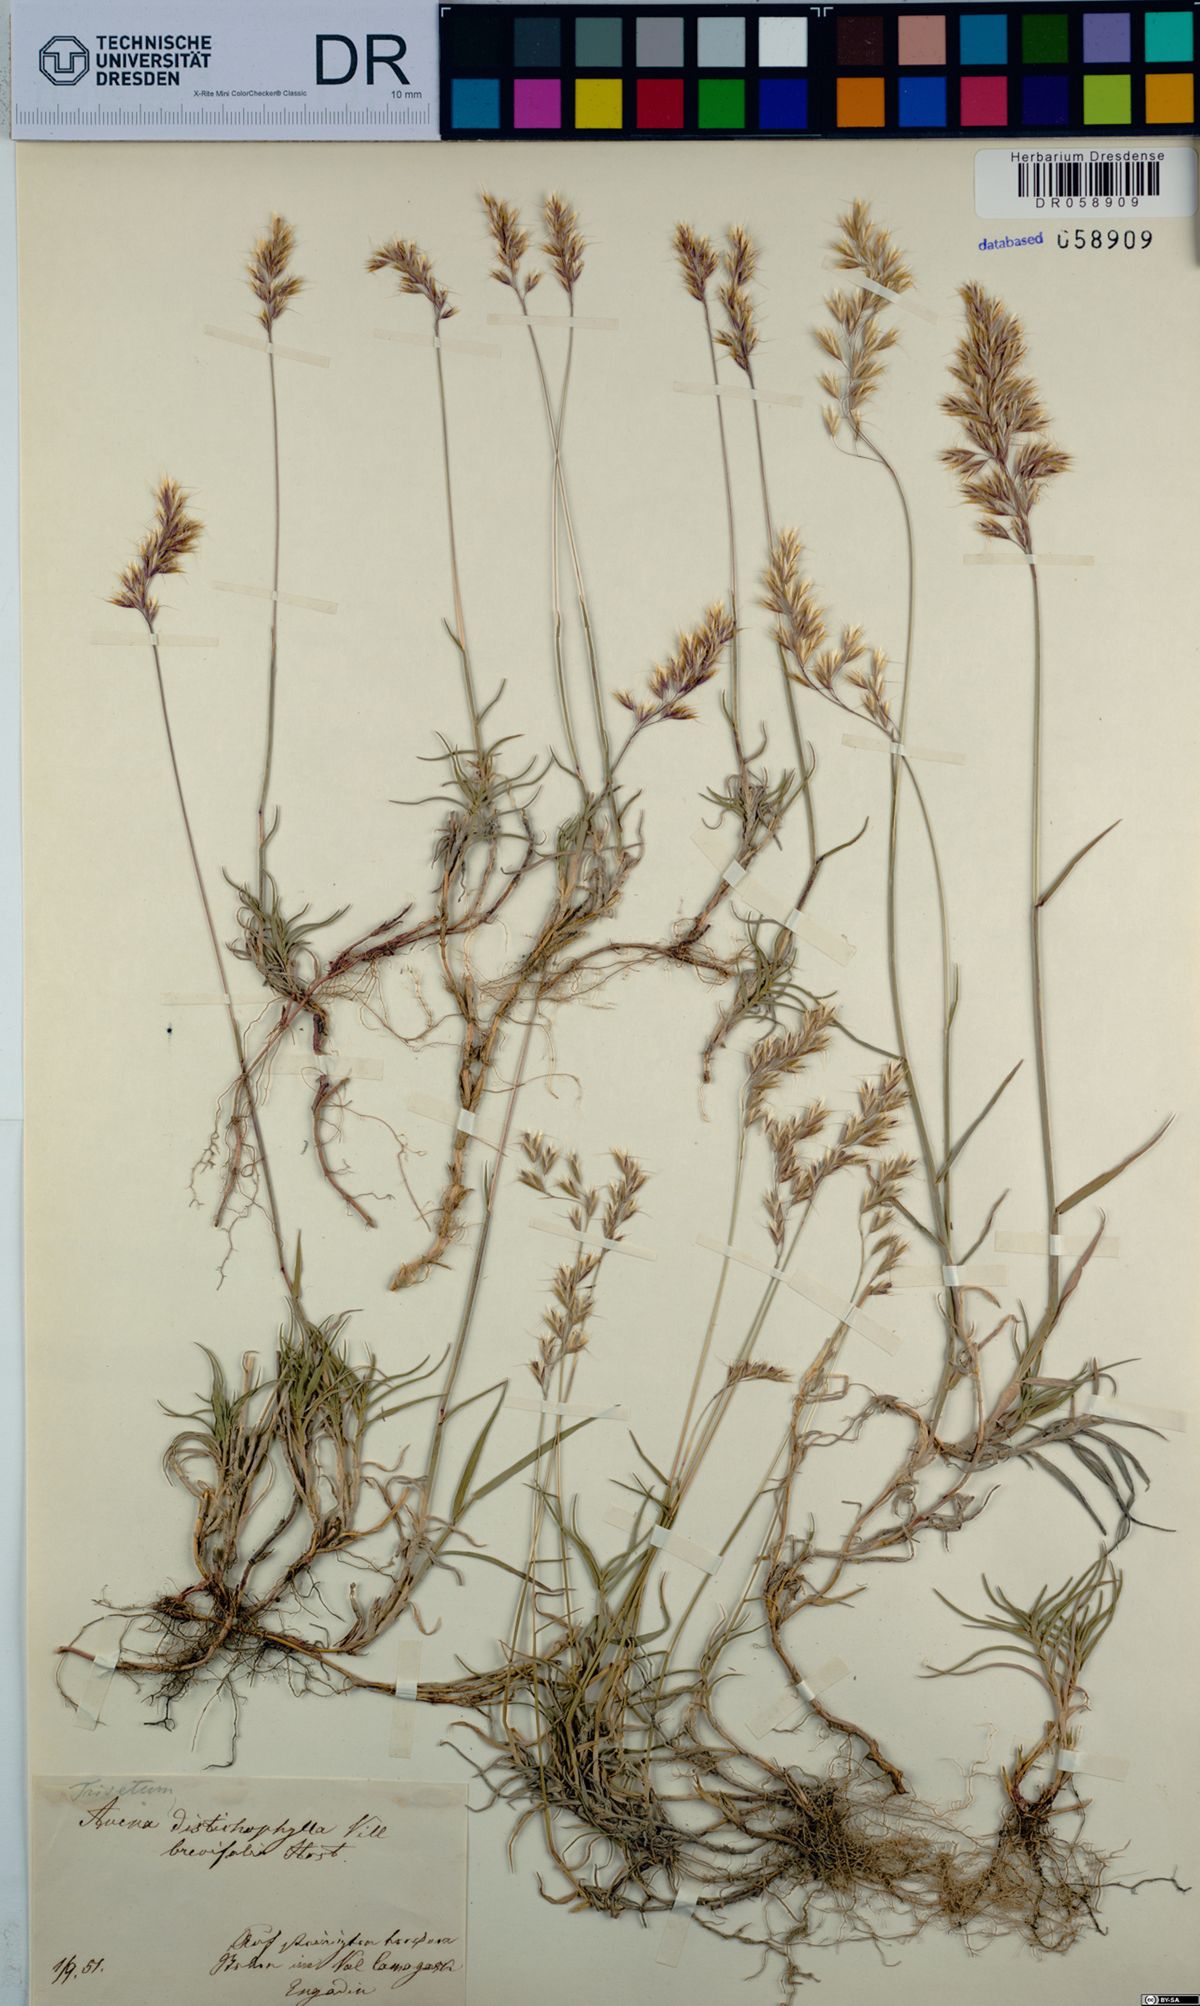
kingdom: Plantae
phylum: Tracheophyta
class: Liliopsida
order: Poales
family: Poaceae
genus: Acrospelion
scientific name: Acrospelion distichophyllum
